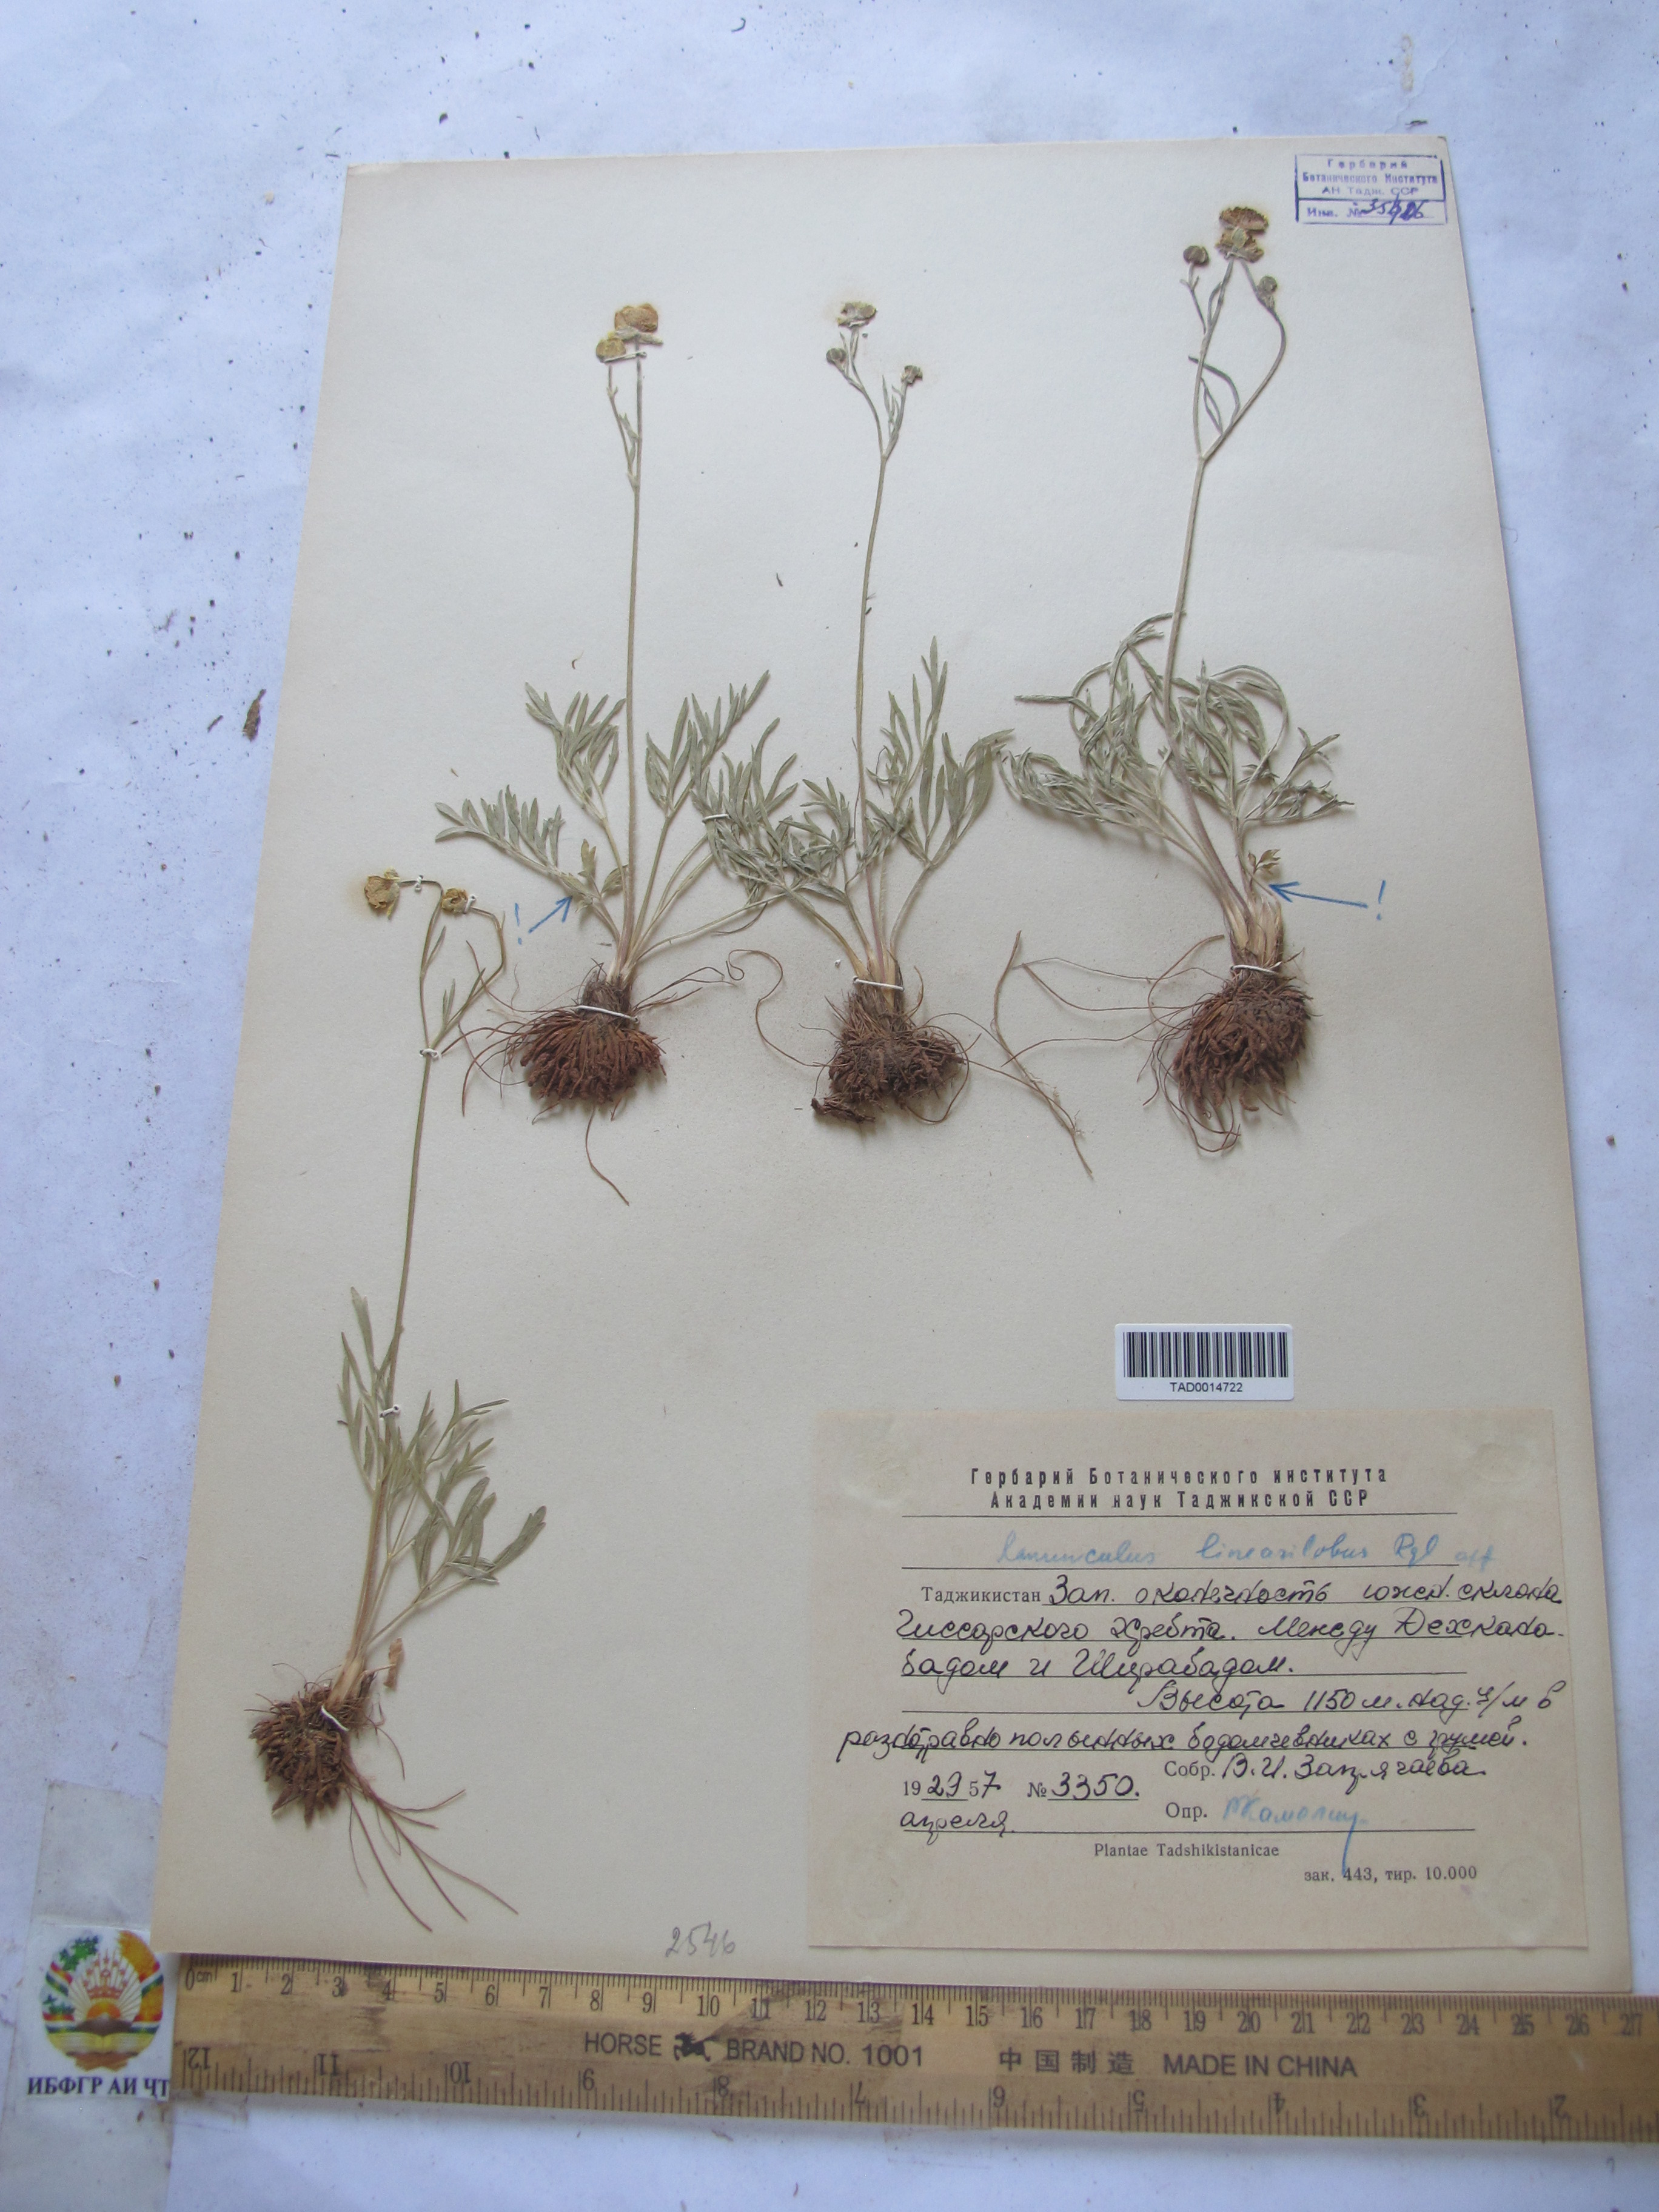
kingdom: Plantae
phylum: Tracheophyta
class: Magnoliopsida
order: Ranunculales
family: Ranunculaceae
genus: Ranunculus
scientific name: Ranunculus linearilobus
